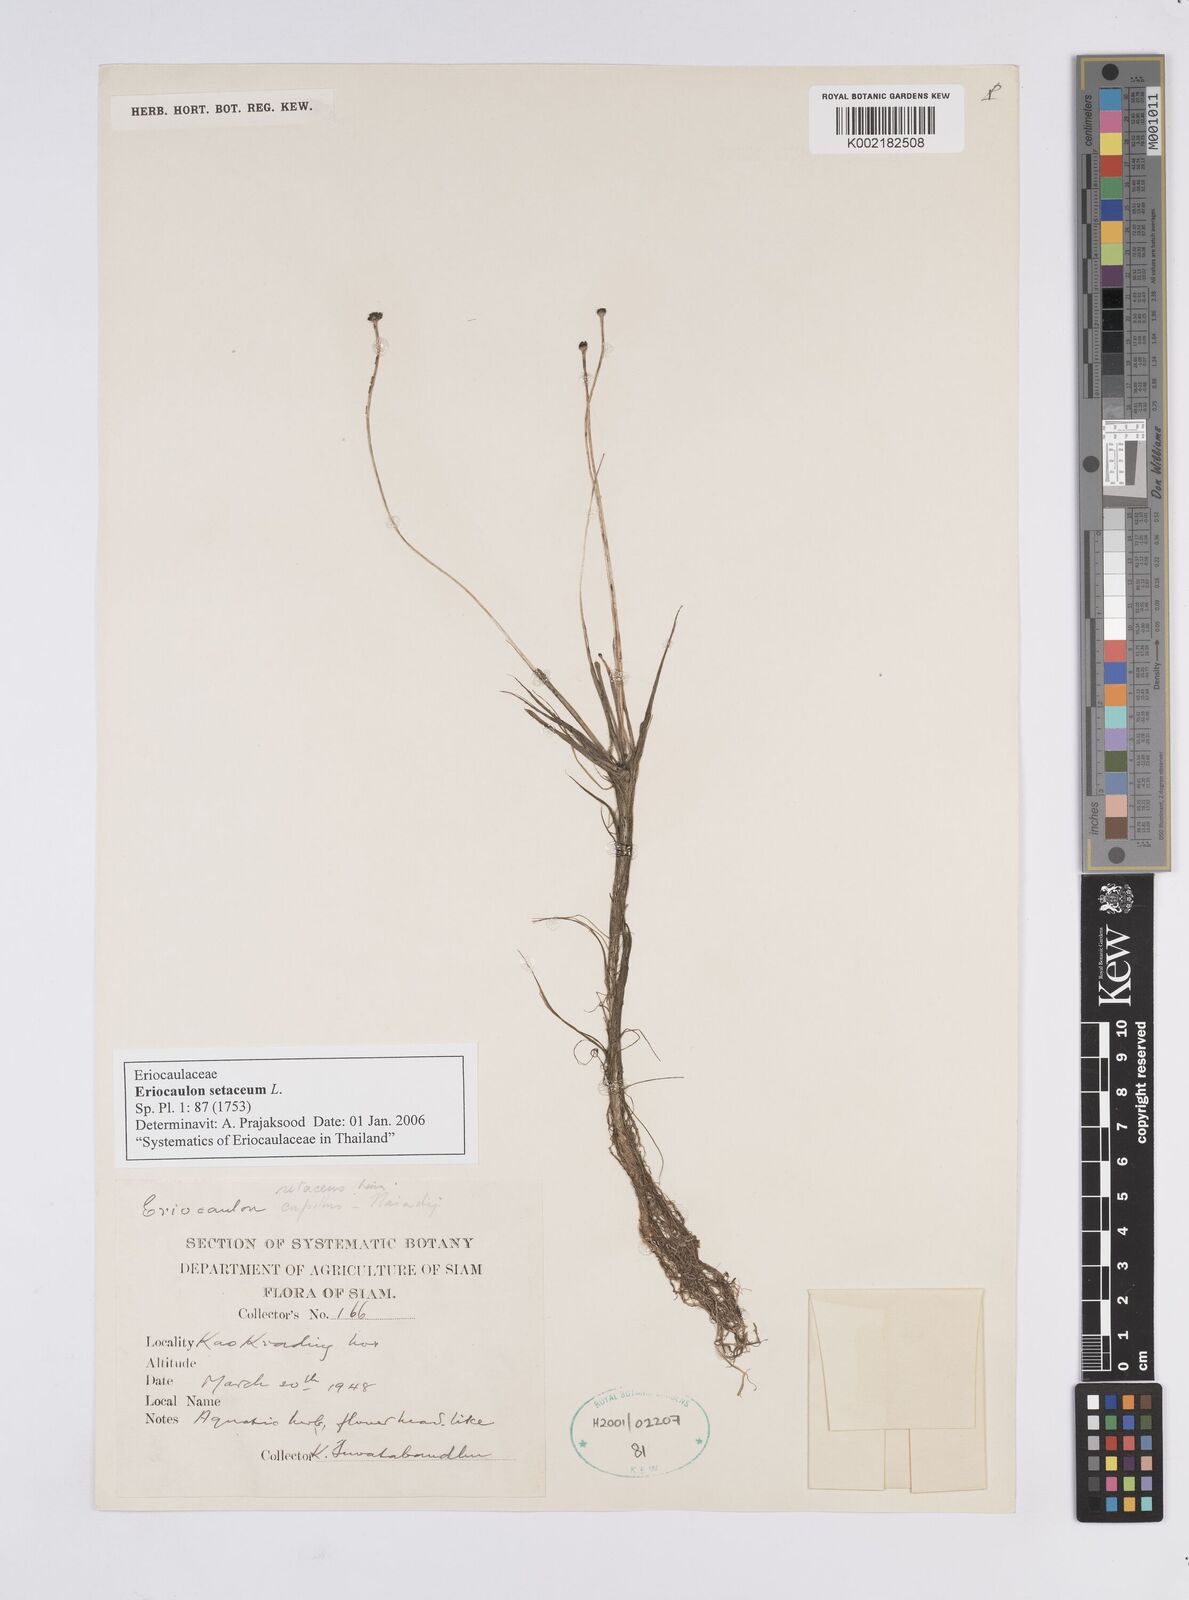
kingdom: Plantae
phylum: Tracheophyta
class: Liliopsida
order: Poales
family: Eriocaulaceae
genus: Eriocaulon
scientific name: Eriocaulon setaceum
